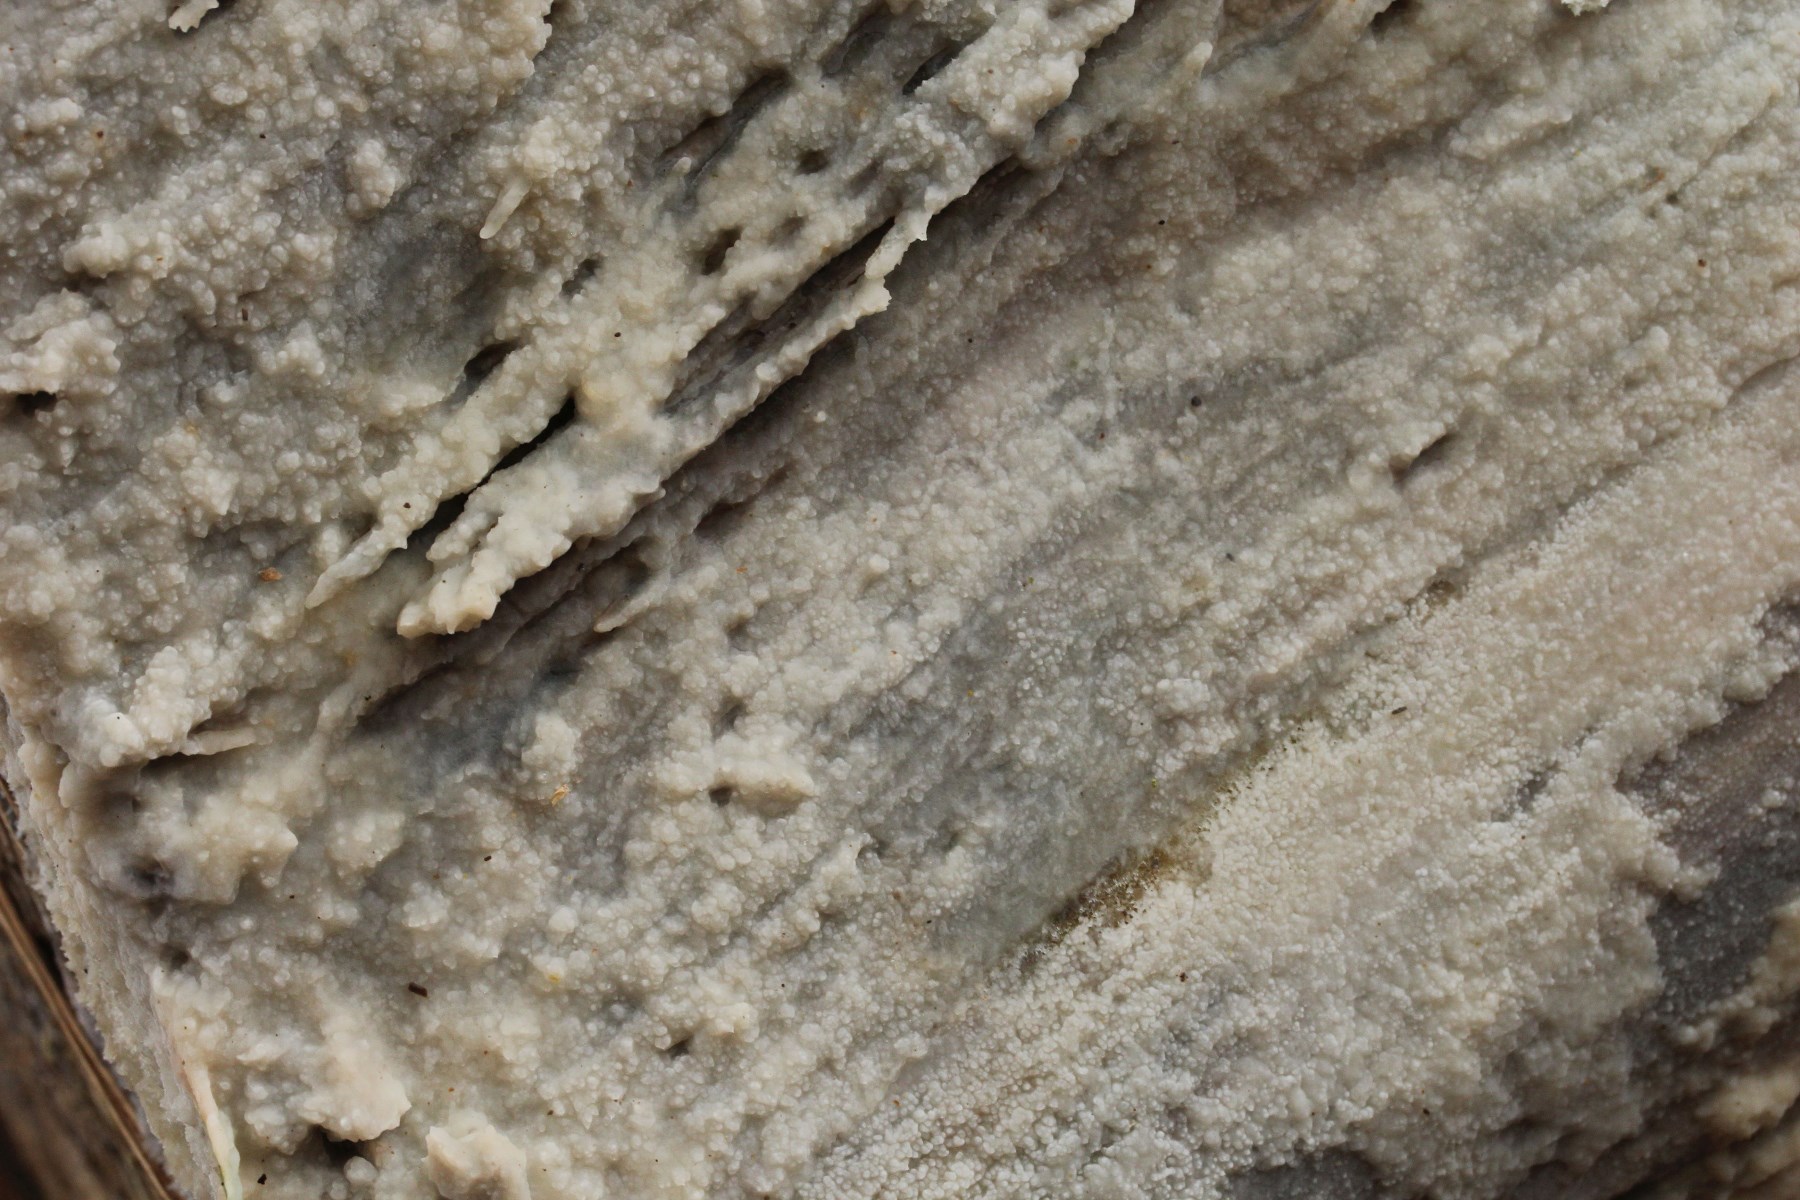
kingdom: Fungi
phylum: Basidiomycota
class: Agaricomycetes
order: Polyporales
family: Phanerochaetaceae
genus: Phlebiopsis
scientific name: Phlebiopsis gigantea
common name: kæmpebarksvamp
